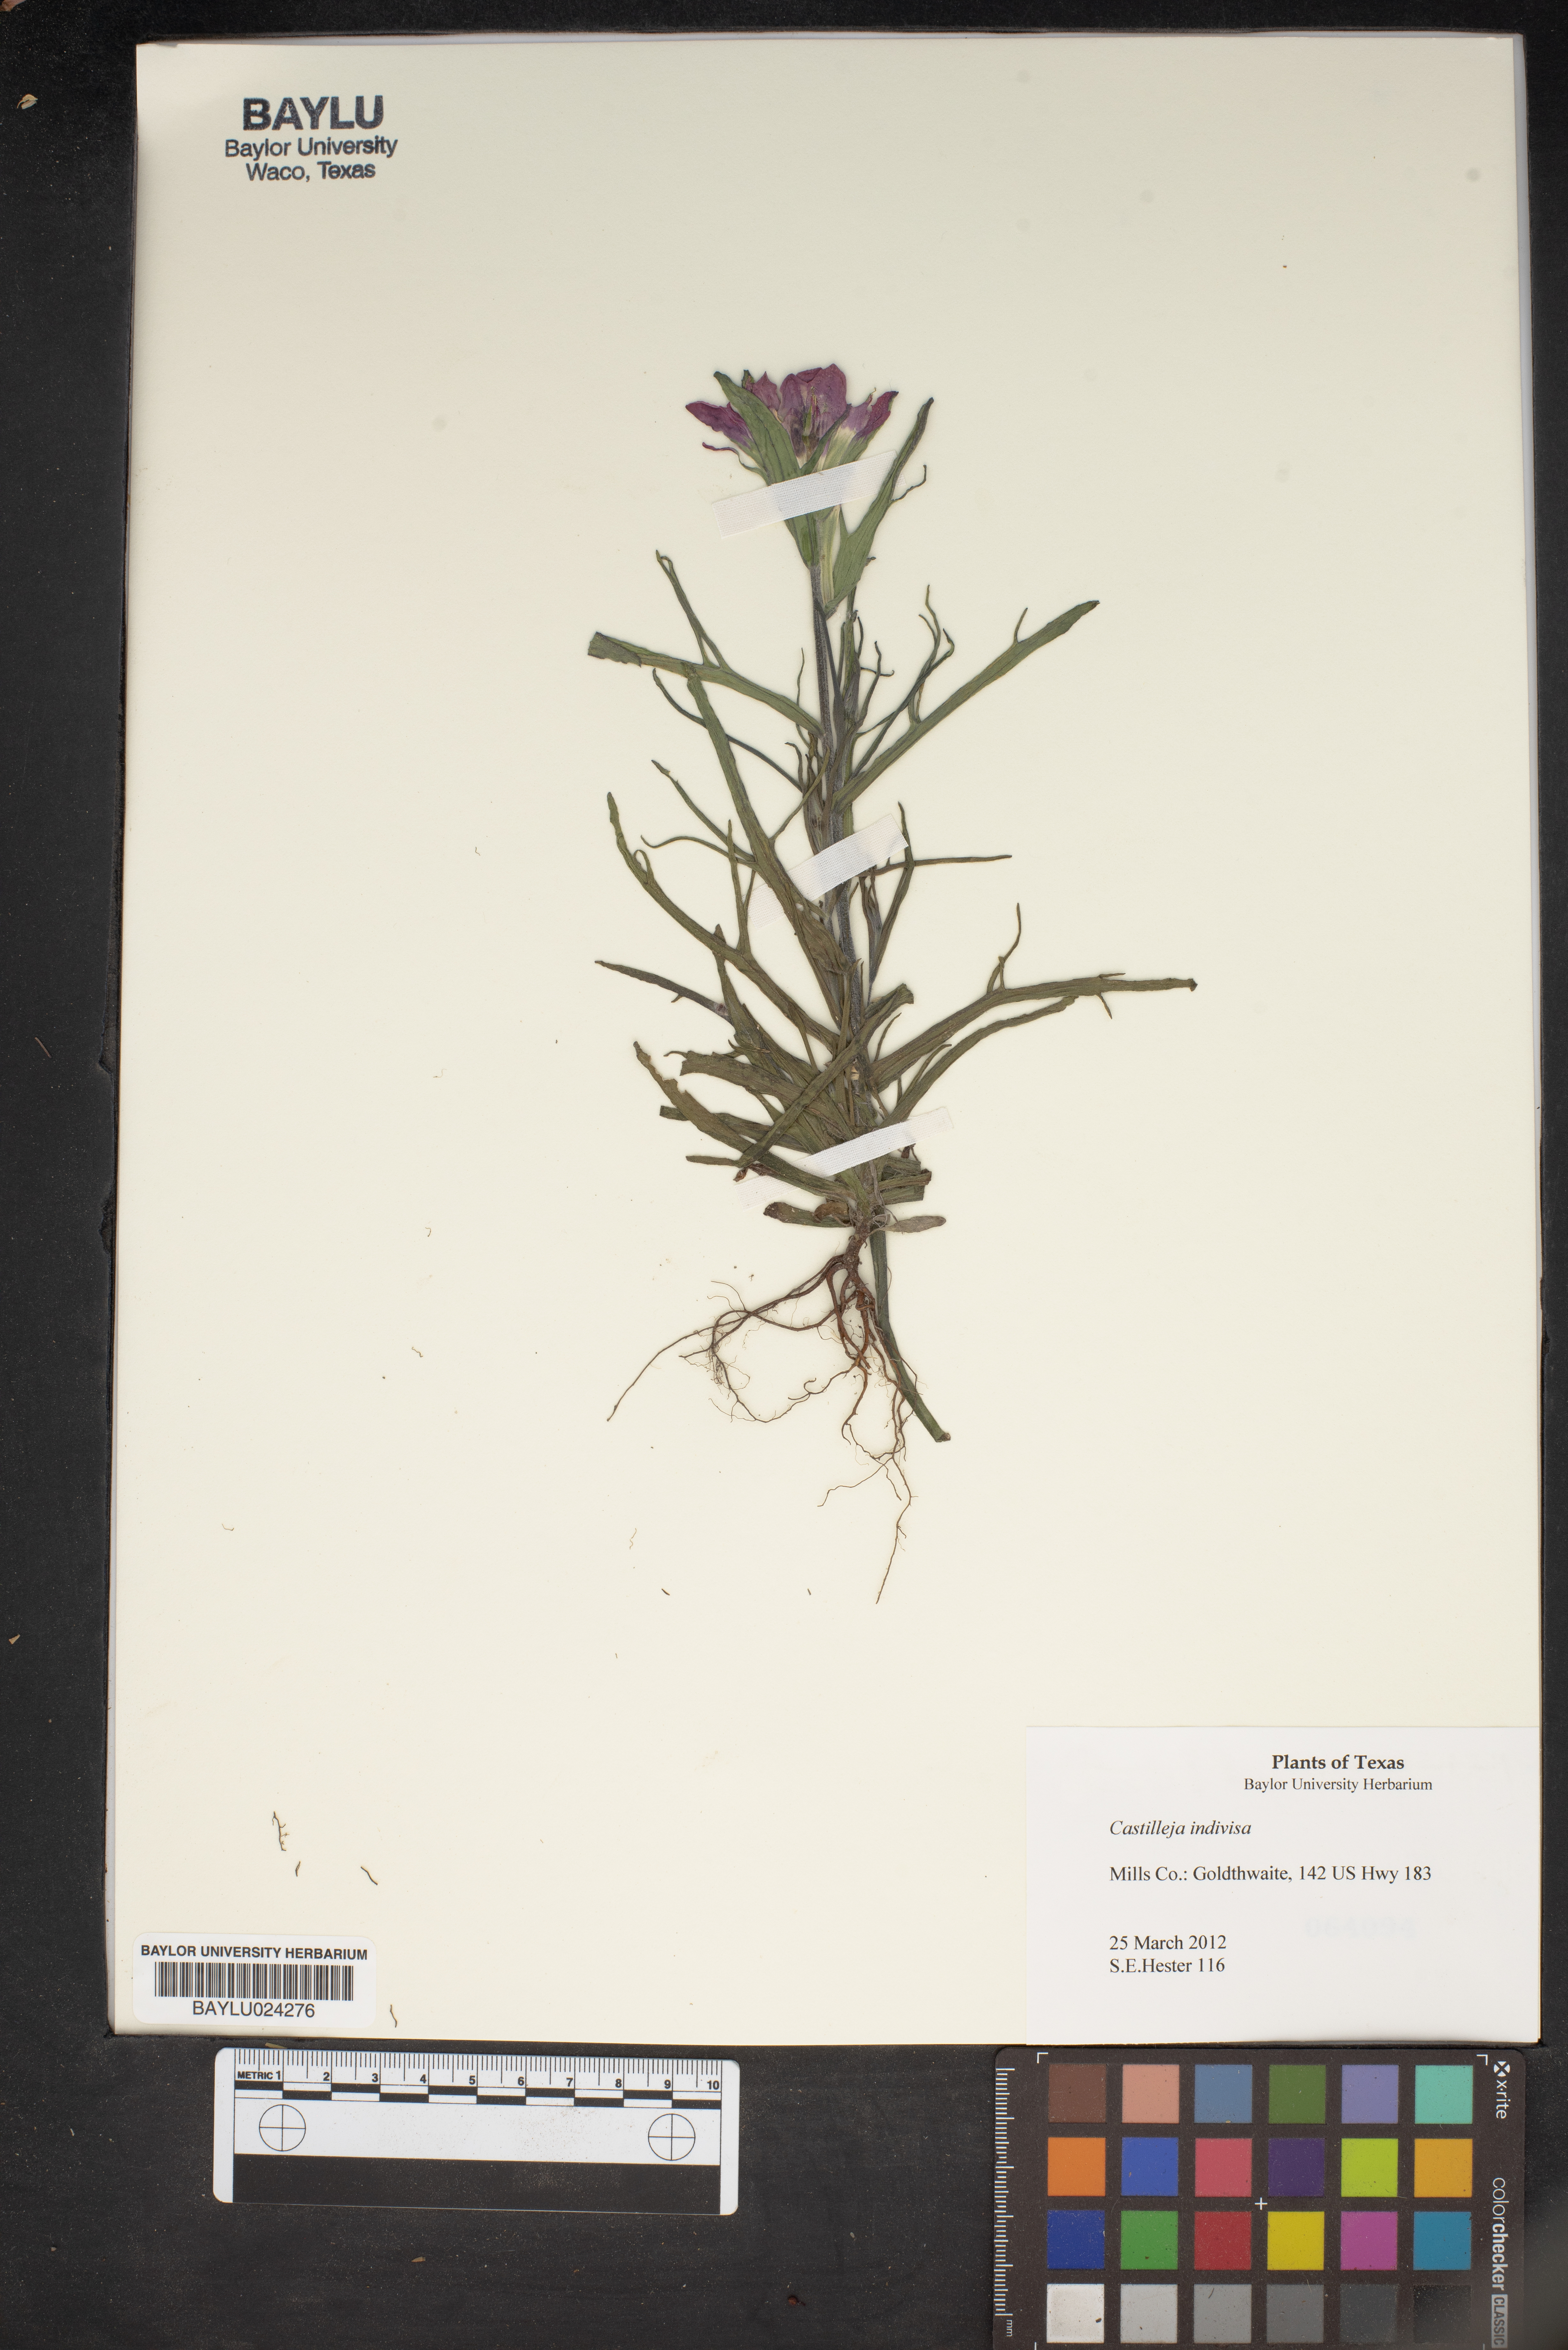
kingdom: Plantae
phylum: Tracheophyta
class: Magnoliopsida
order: Lamiales
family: Orobanchaceae
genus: Castilleja
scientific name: Castilleja indivisa
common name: Texas paintbrush
